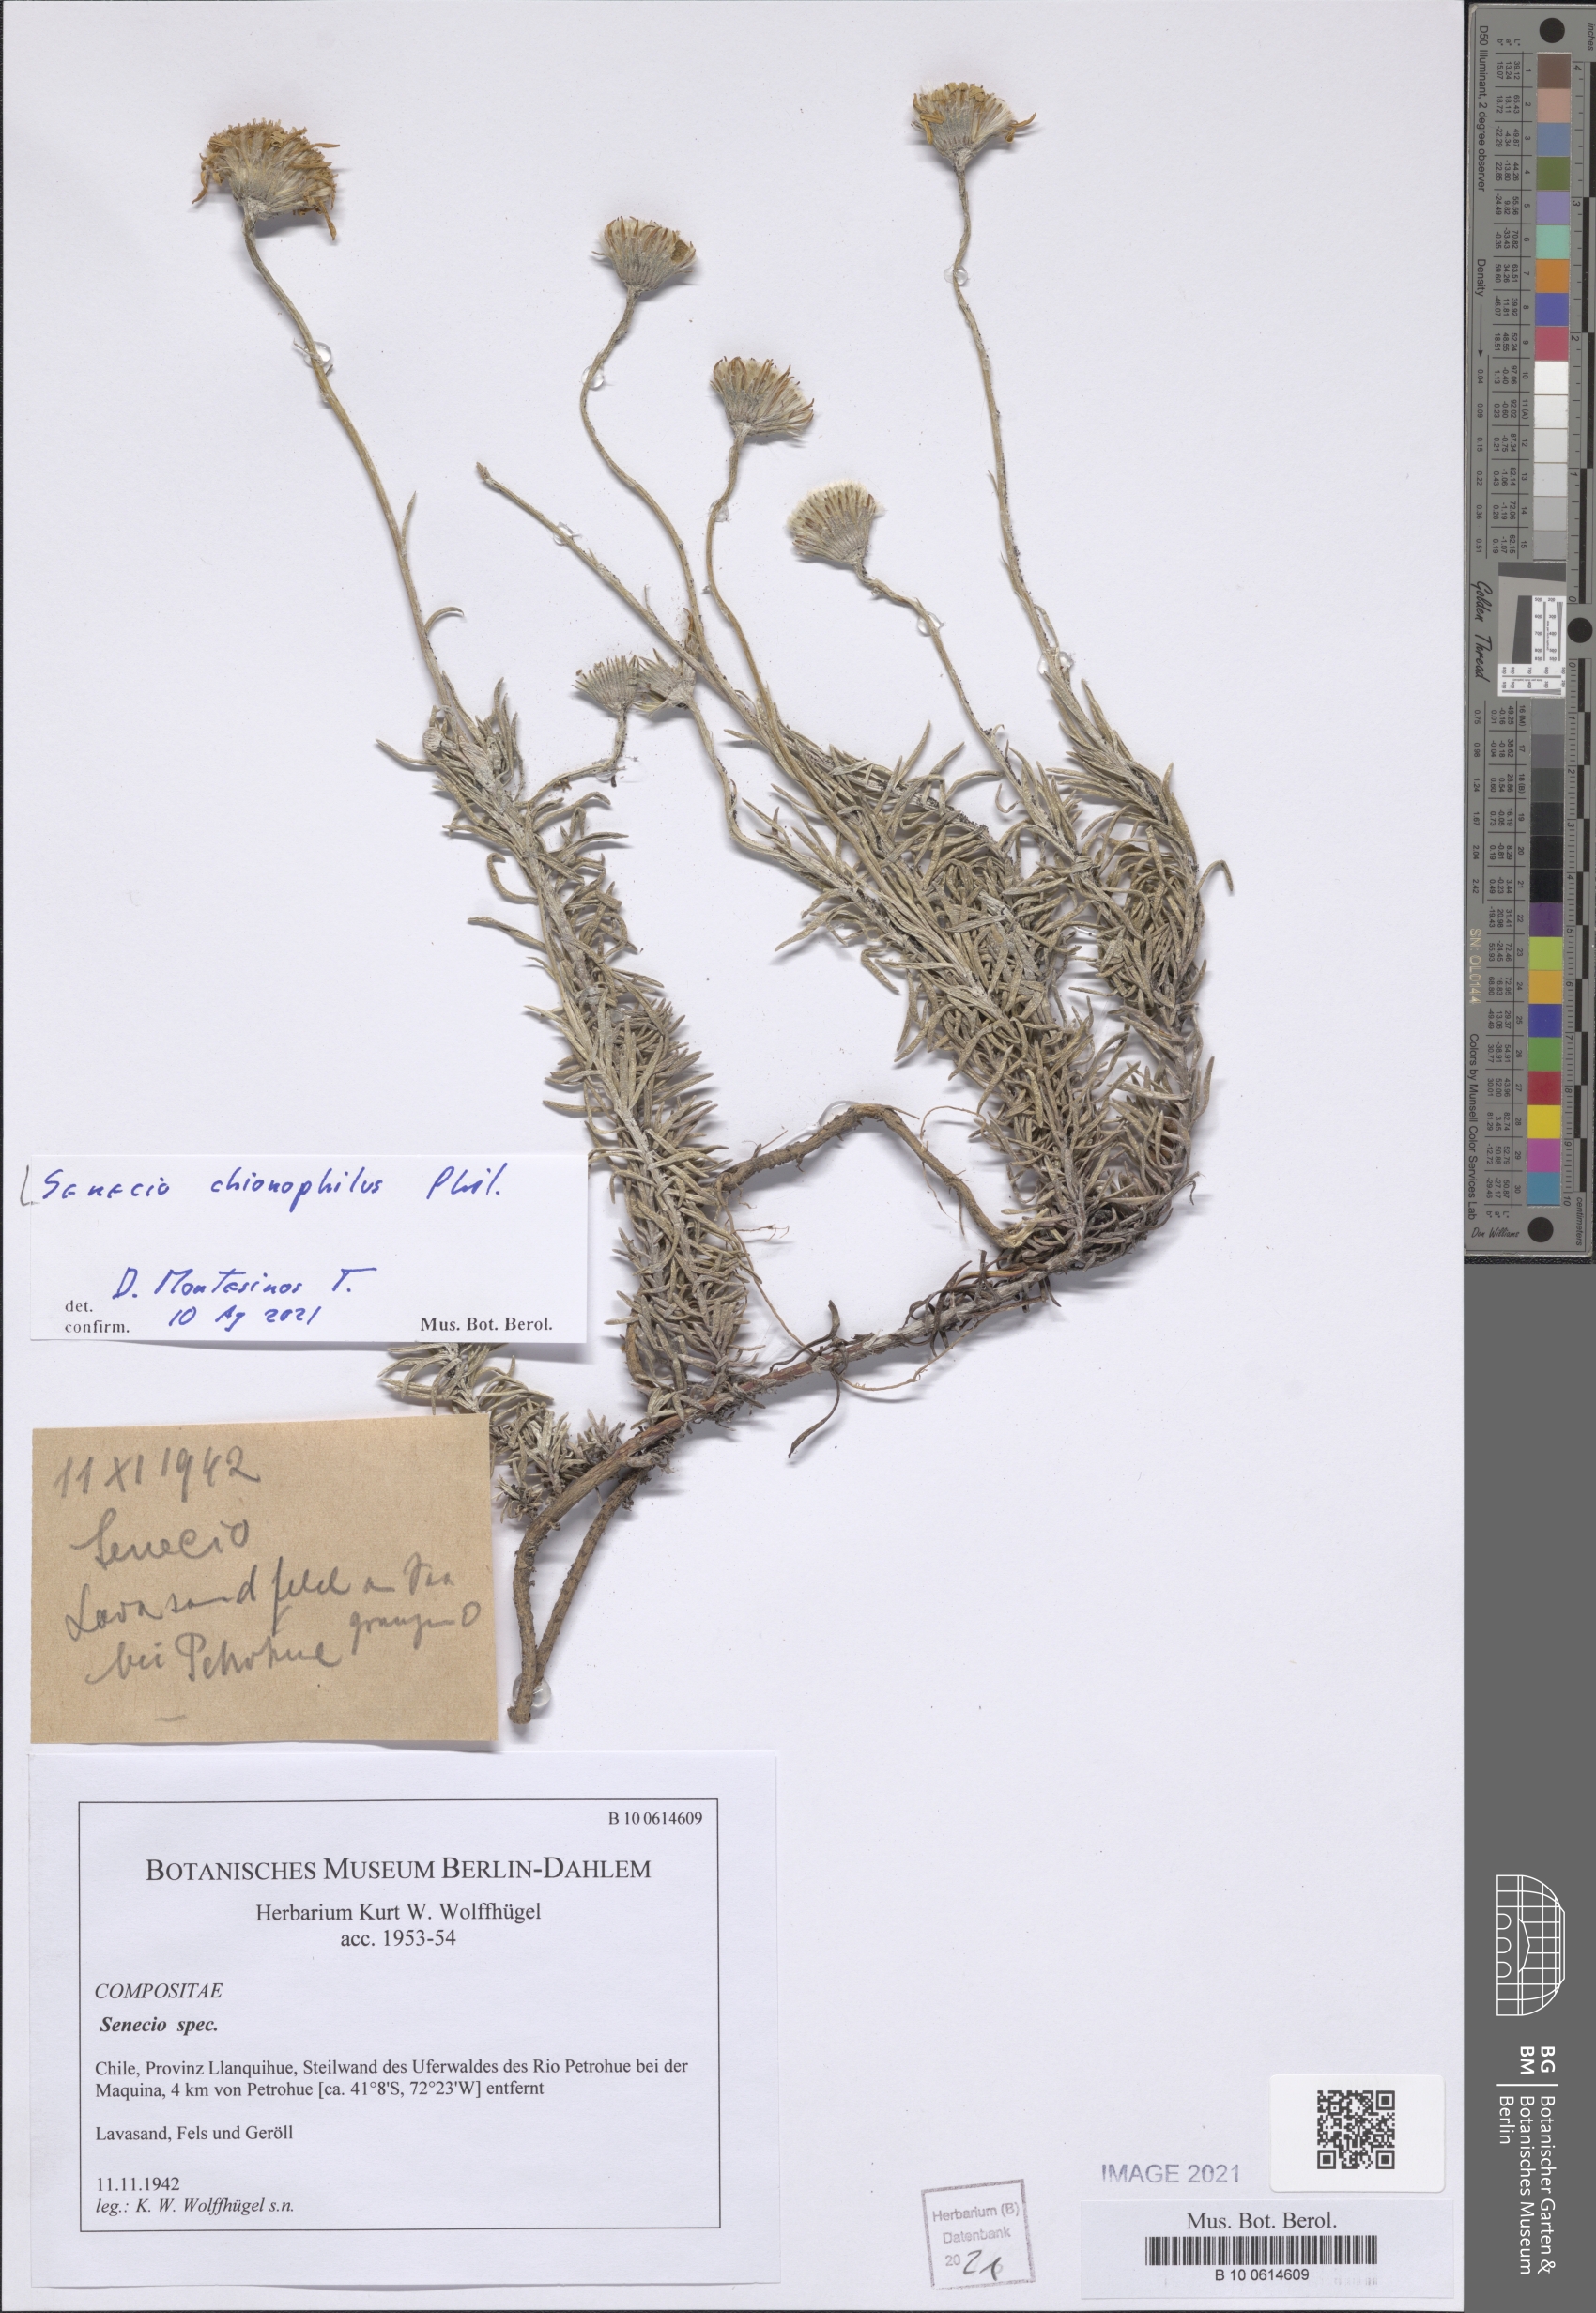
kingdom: Plantae
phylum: Tracheophyta
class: Magnoliopsida
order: Asterales
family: Asteraceae
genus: Senecio
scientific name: Senecio chionophilus
